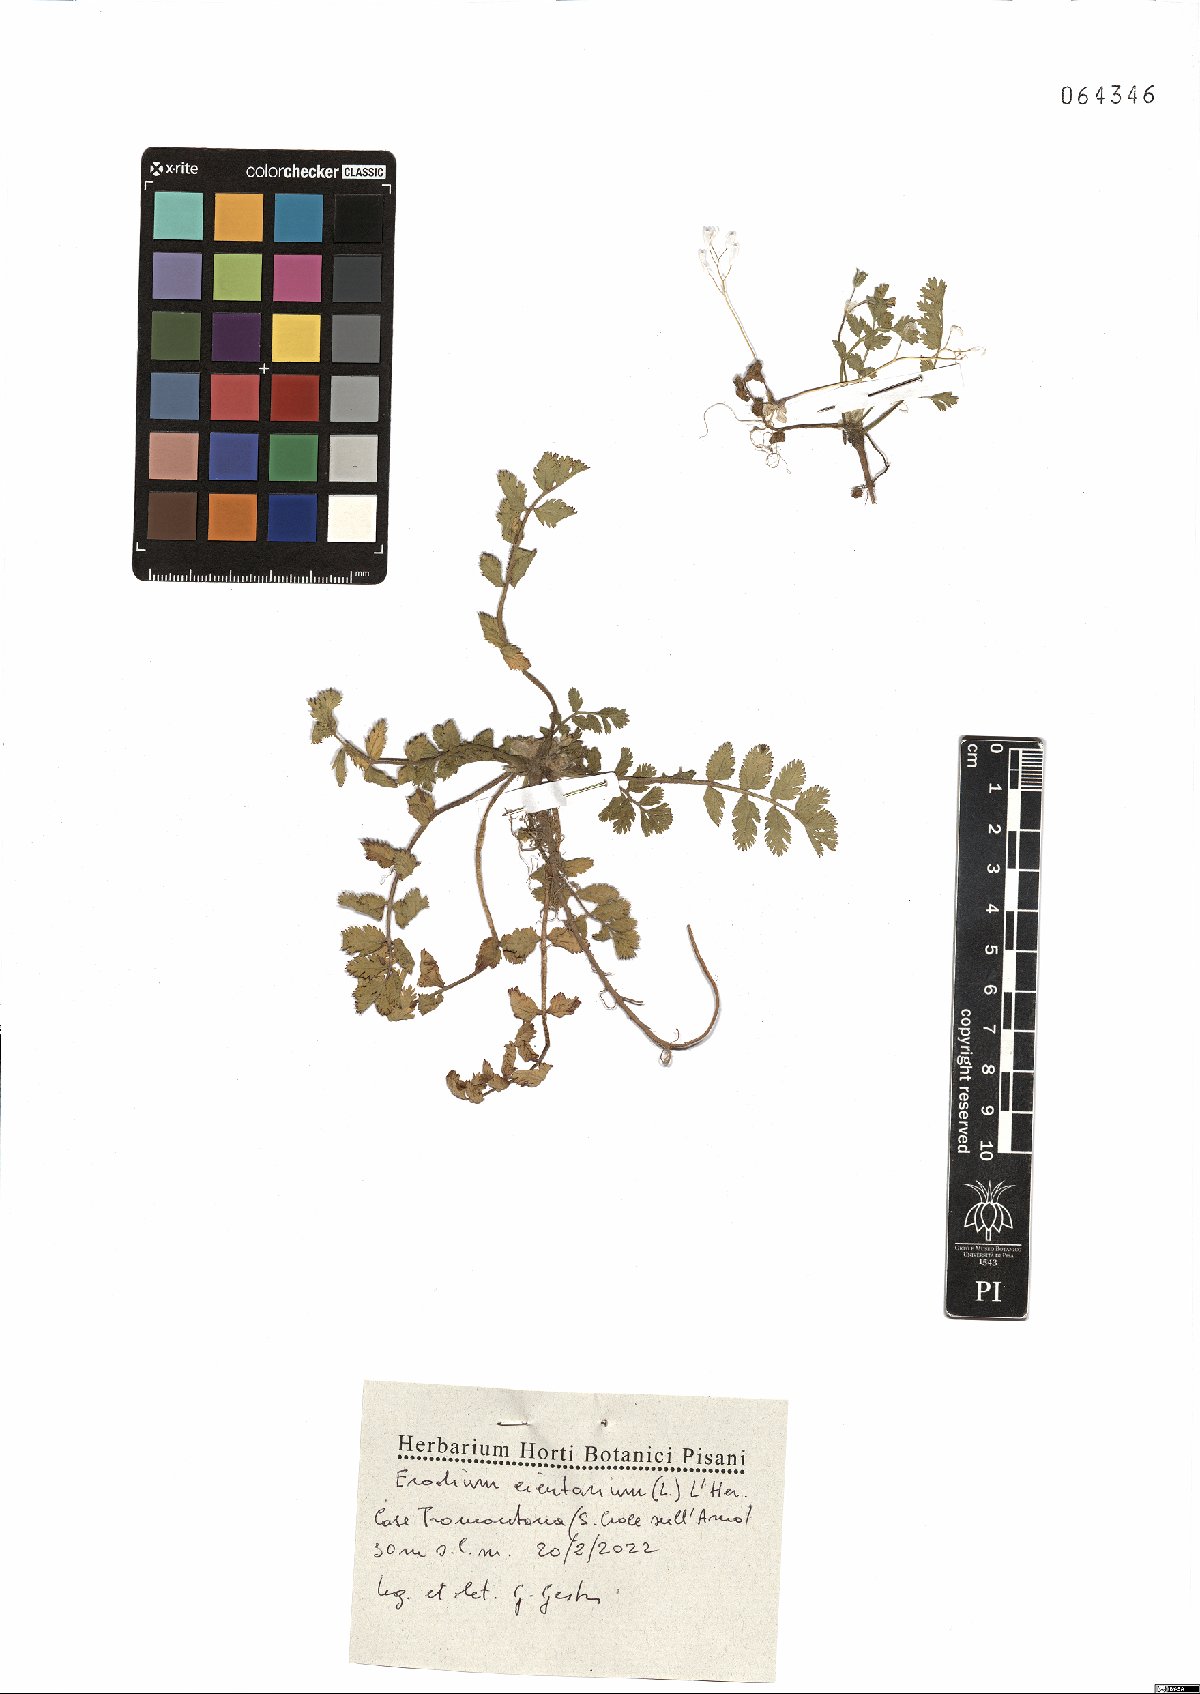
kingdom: Plantae
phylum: Tracheophyta
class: Magnoliopsida
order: Geraniales
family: Geraniaceae
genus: Erodium
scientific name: Erodium cicutarium
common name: Common stork's-bill
